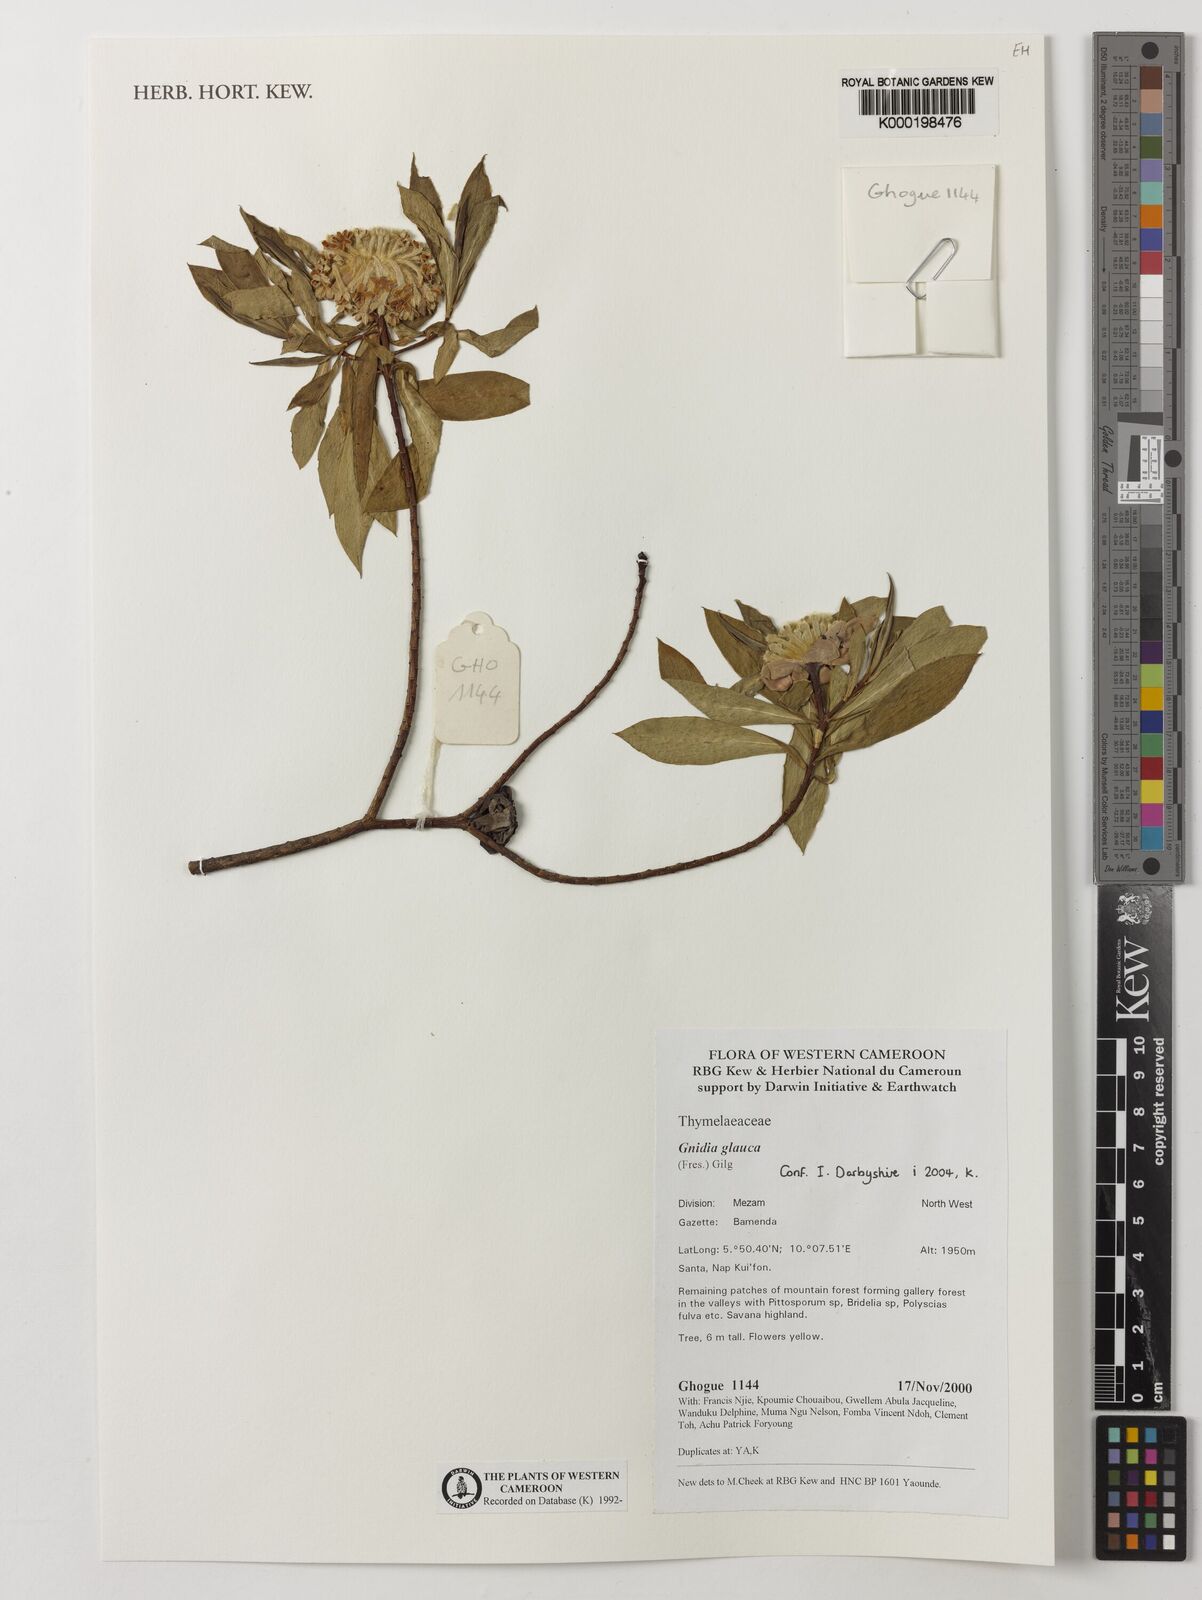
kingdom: Plantae
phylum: Tracheophyta
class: Magnoliopsida
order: Malvales
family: Thymelaeaceae
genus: Gnidia
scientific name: Gnidia glauca
